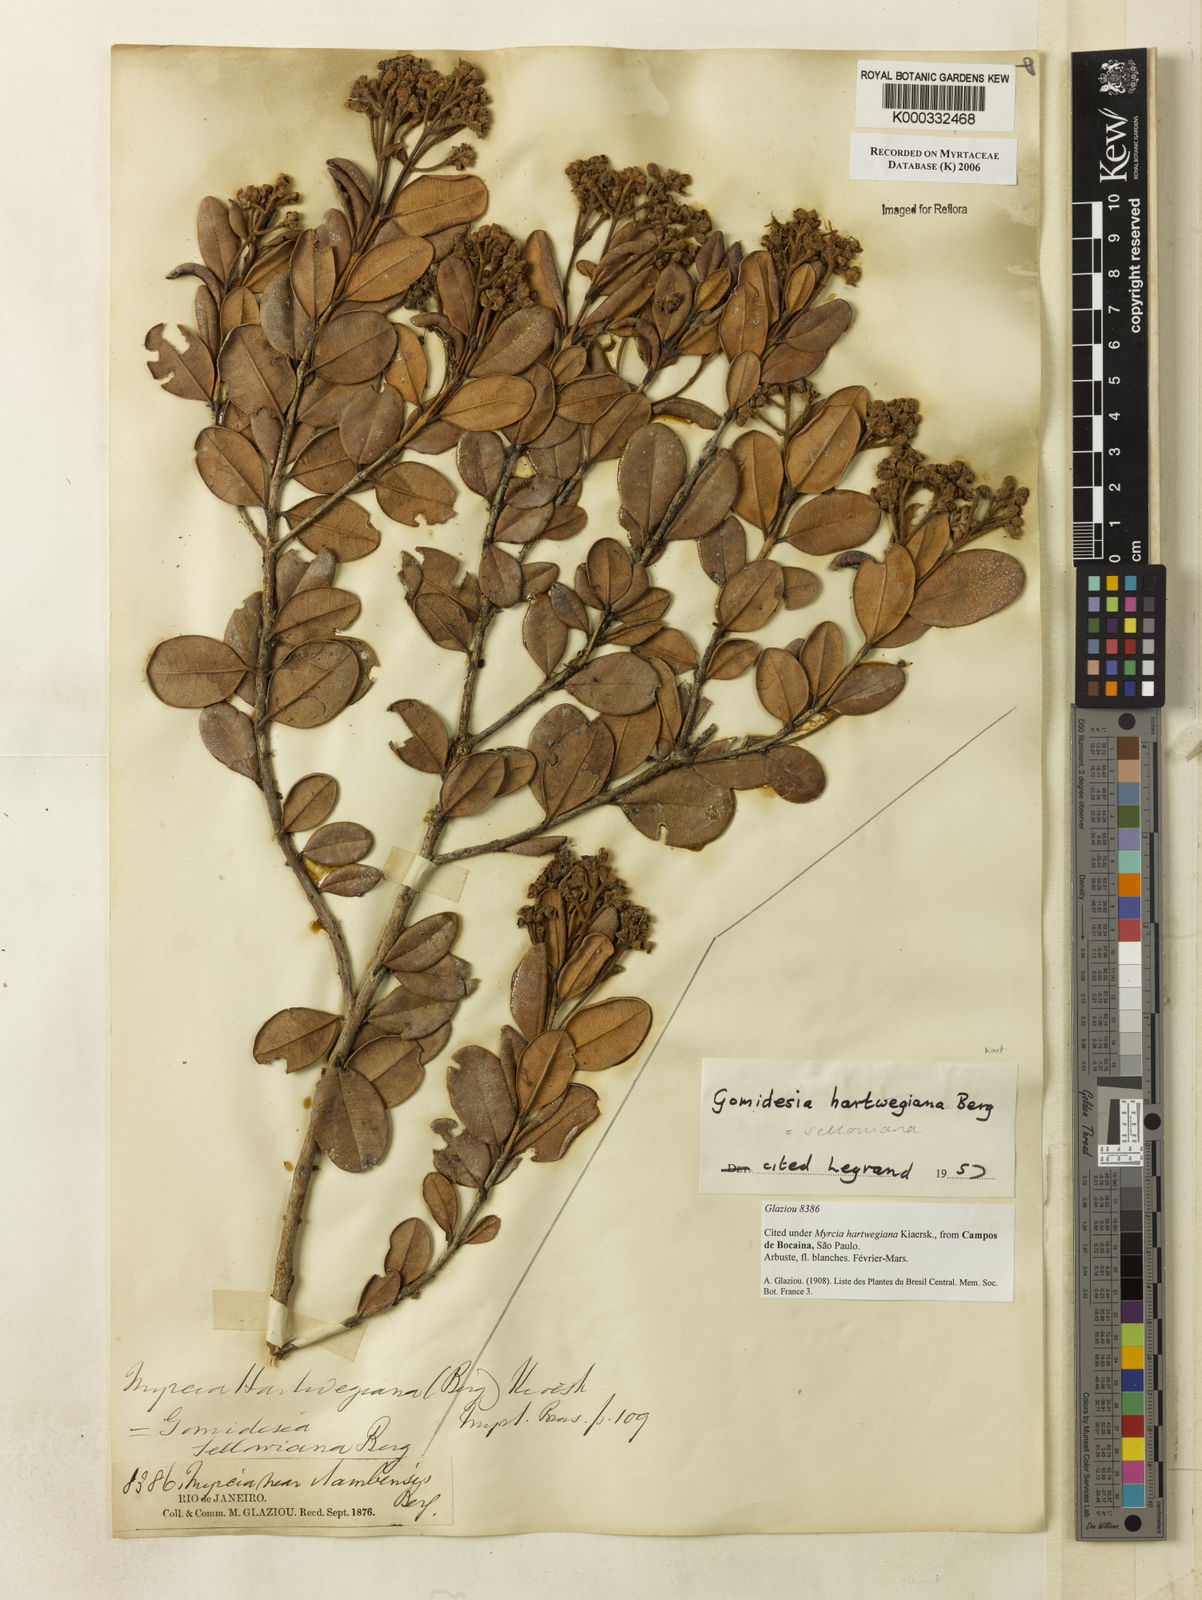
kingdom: Plantae
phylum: Tracheophyta
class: Magnoliopsida
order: Myrtales
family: Myrtaceae
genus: Myrcia
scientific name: Myrcia hartwegiana
